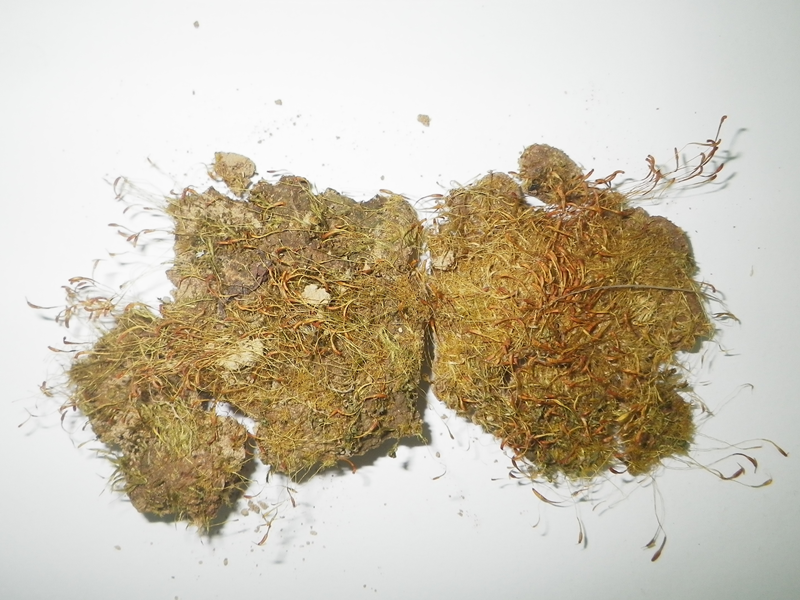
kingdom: Plantae
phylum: Bryophyta
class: Bryopsida
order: Dicranales
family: Bruchiaceae
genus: Trematodon
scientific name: Trematodon longicollis
